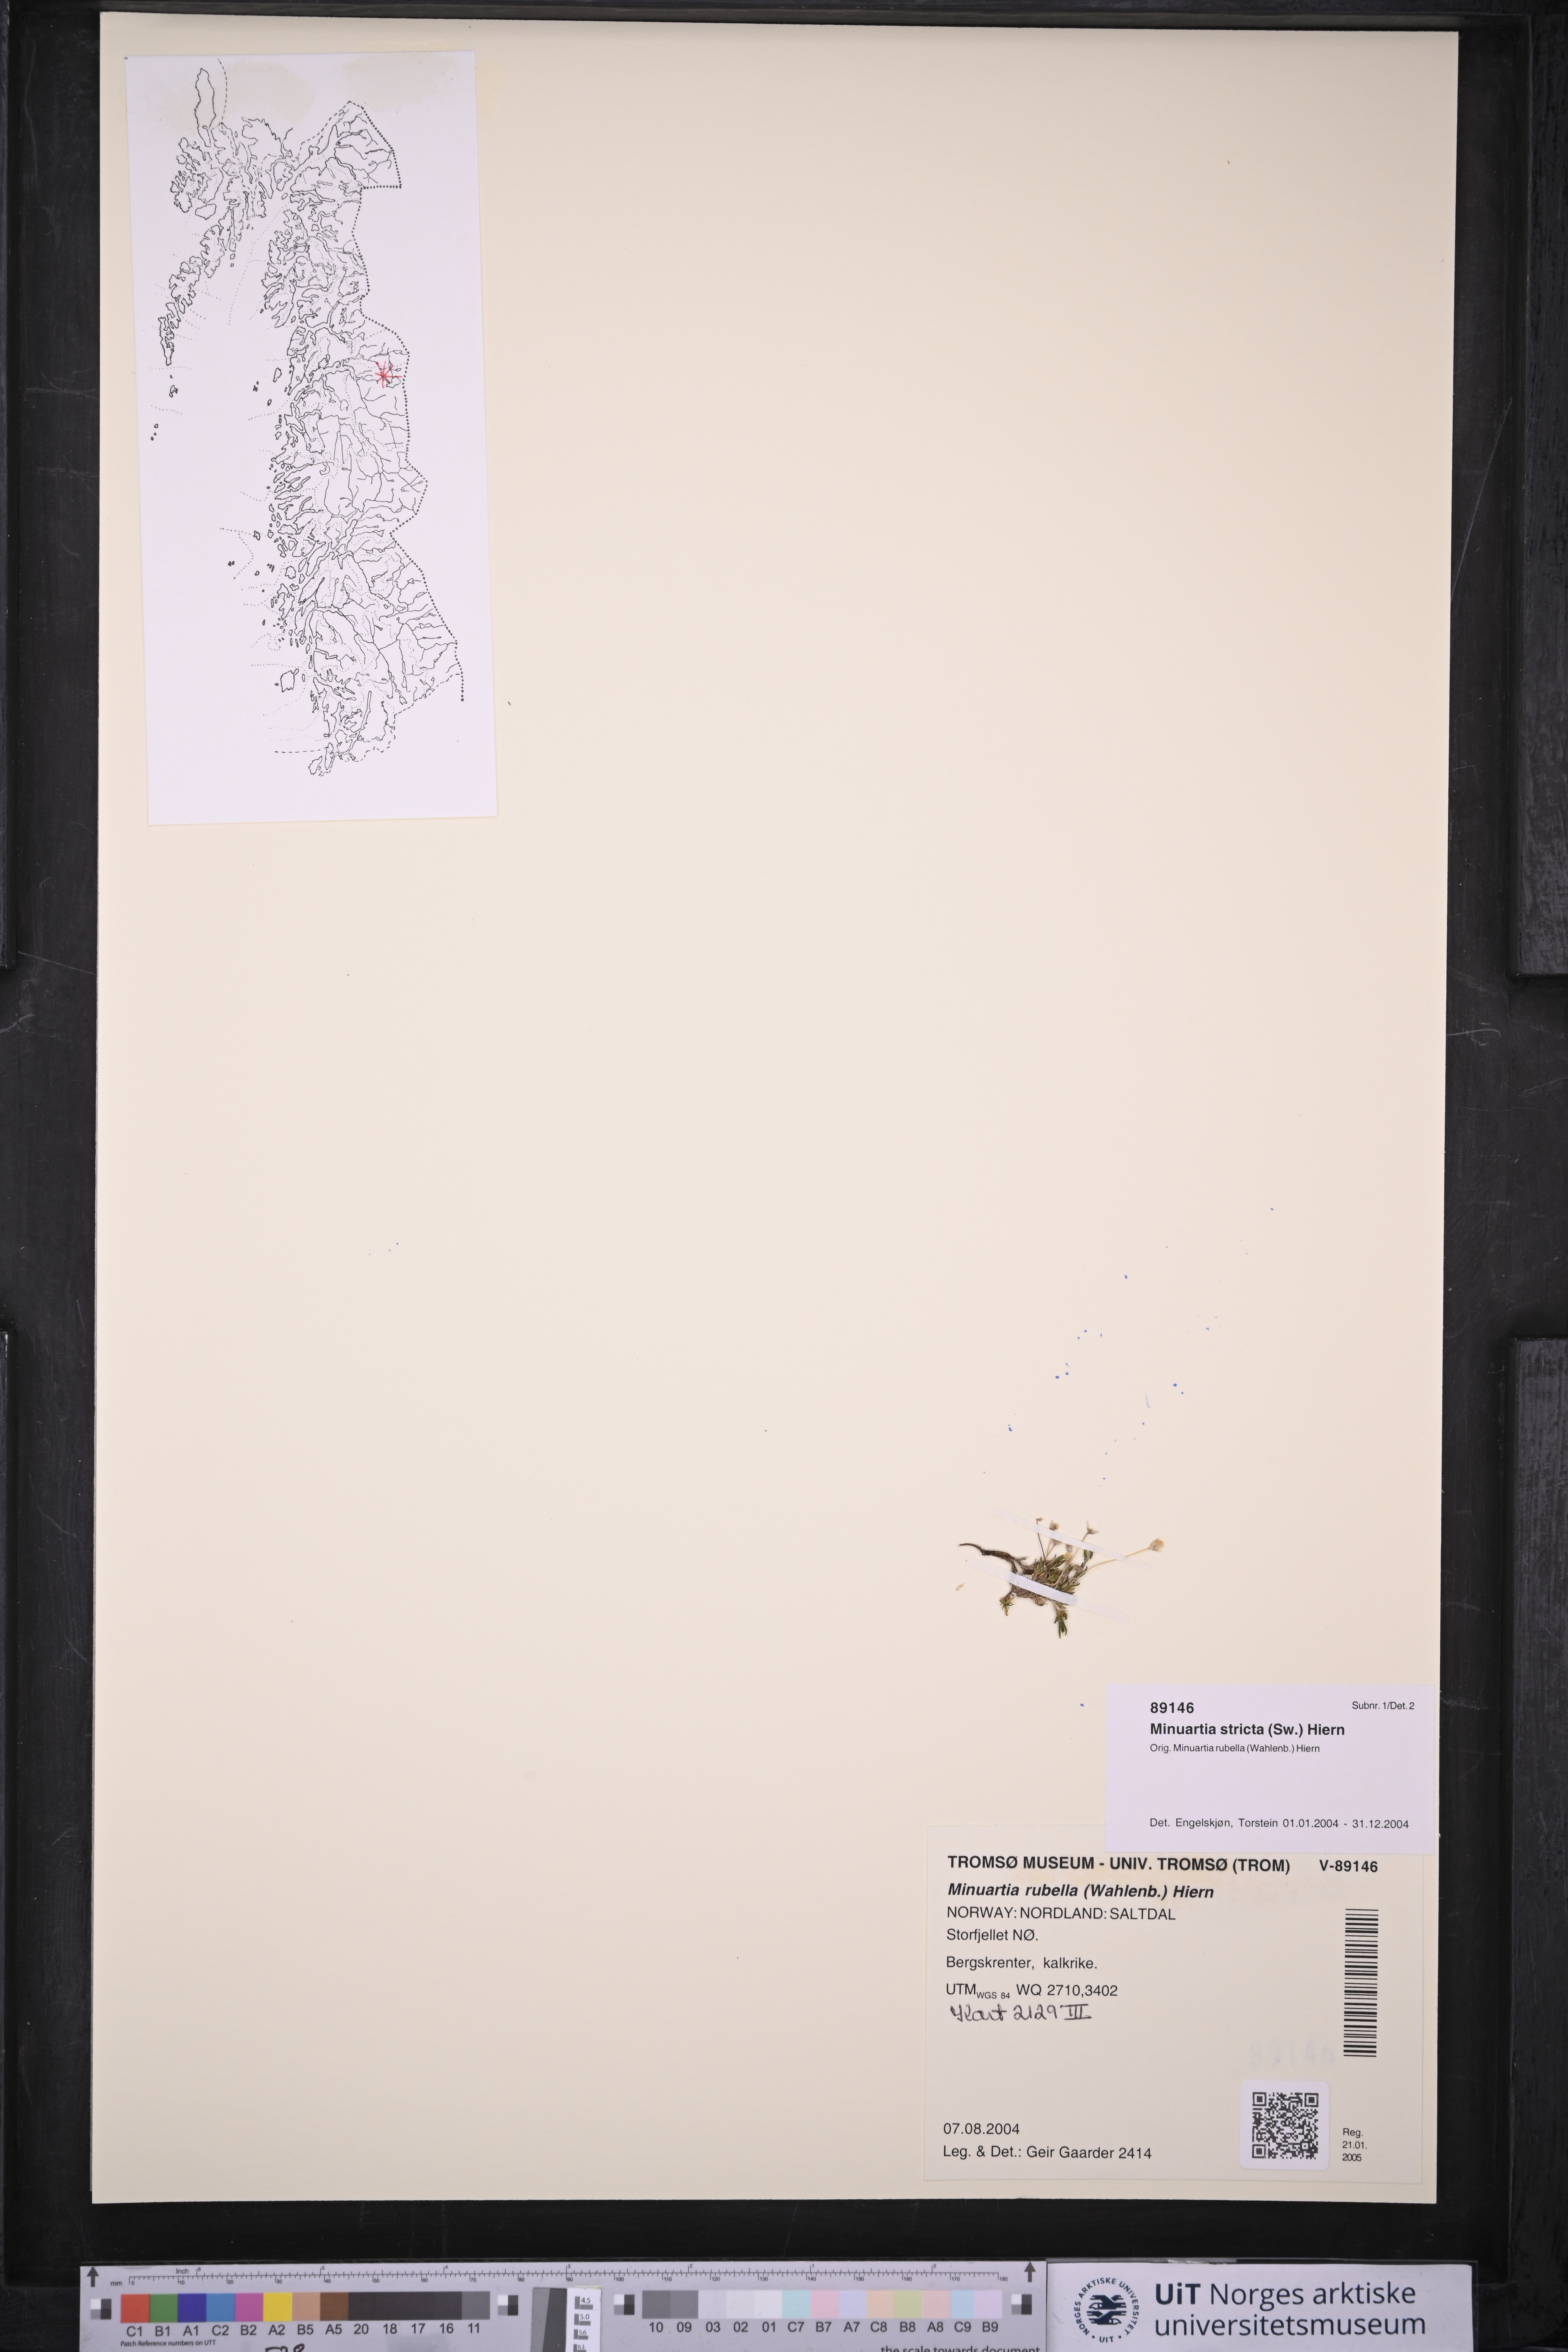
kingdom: Plantae
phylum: Tracheophyta
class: Magnoliopsida
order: Caryophyllales
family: Caryophyllaceae
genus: Sabulina
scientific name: Sabulina stricta
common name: Bog sandwort
